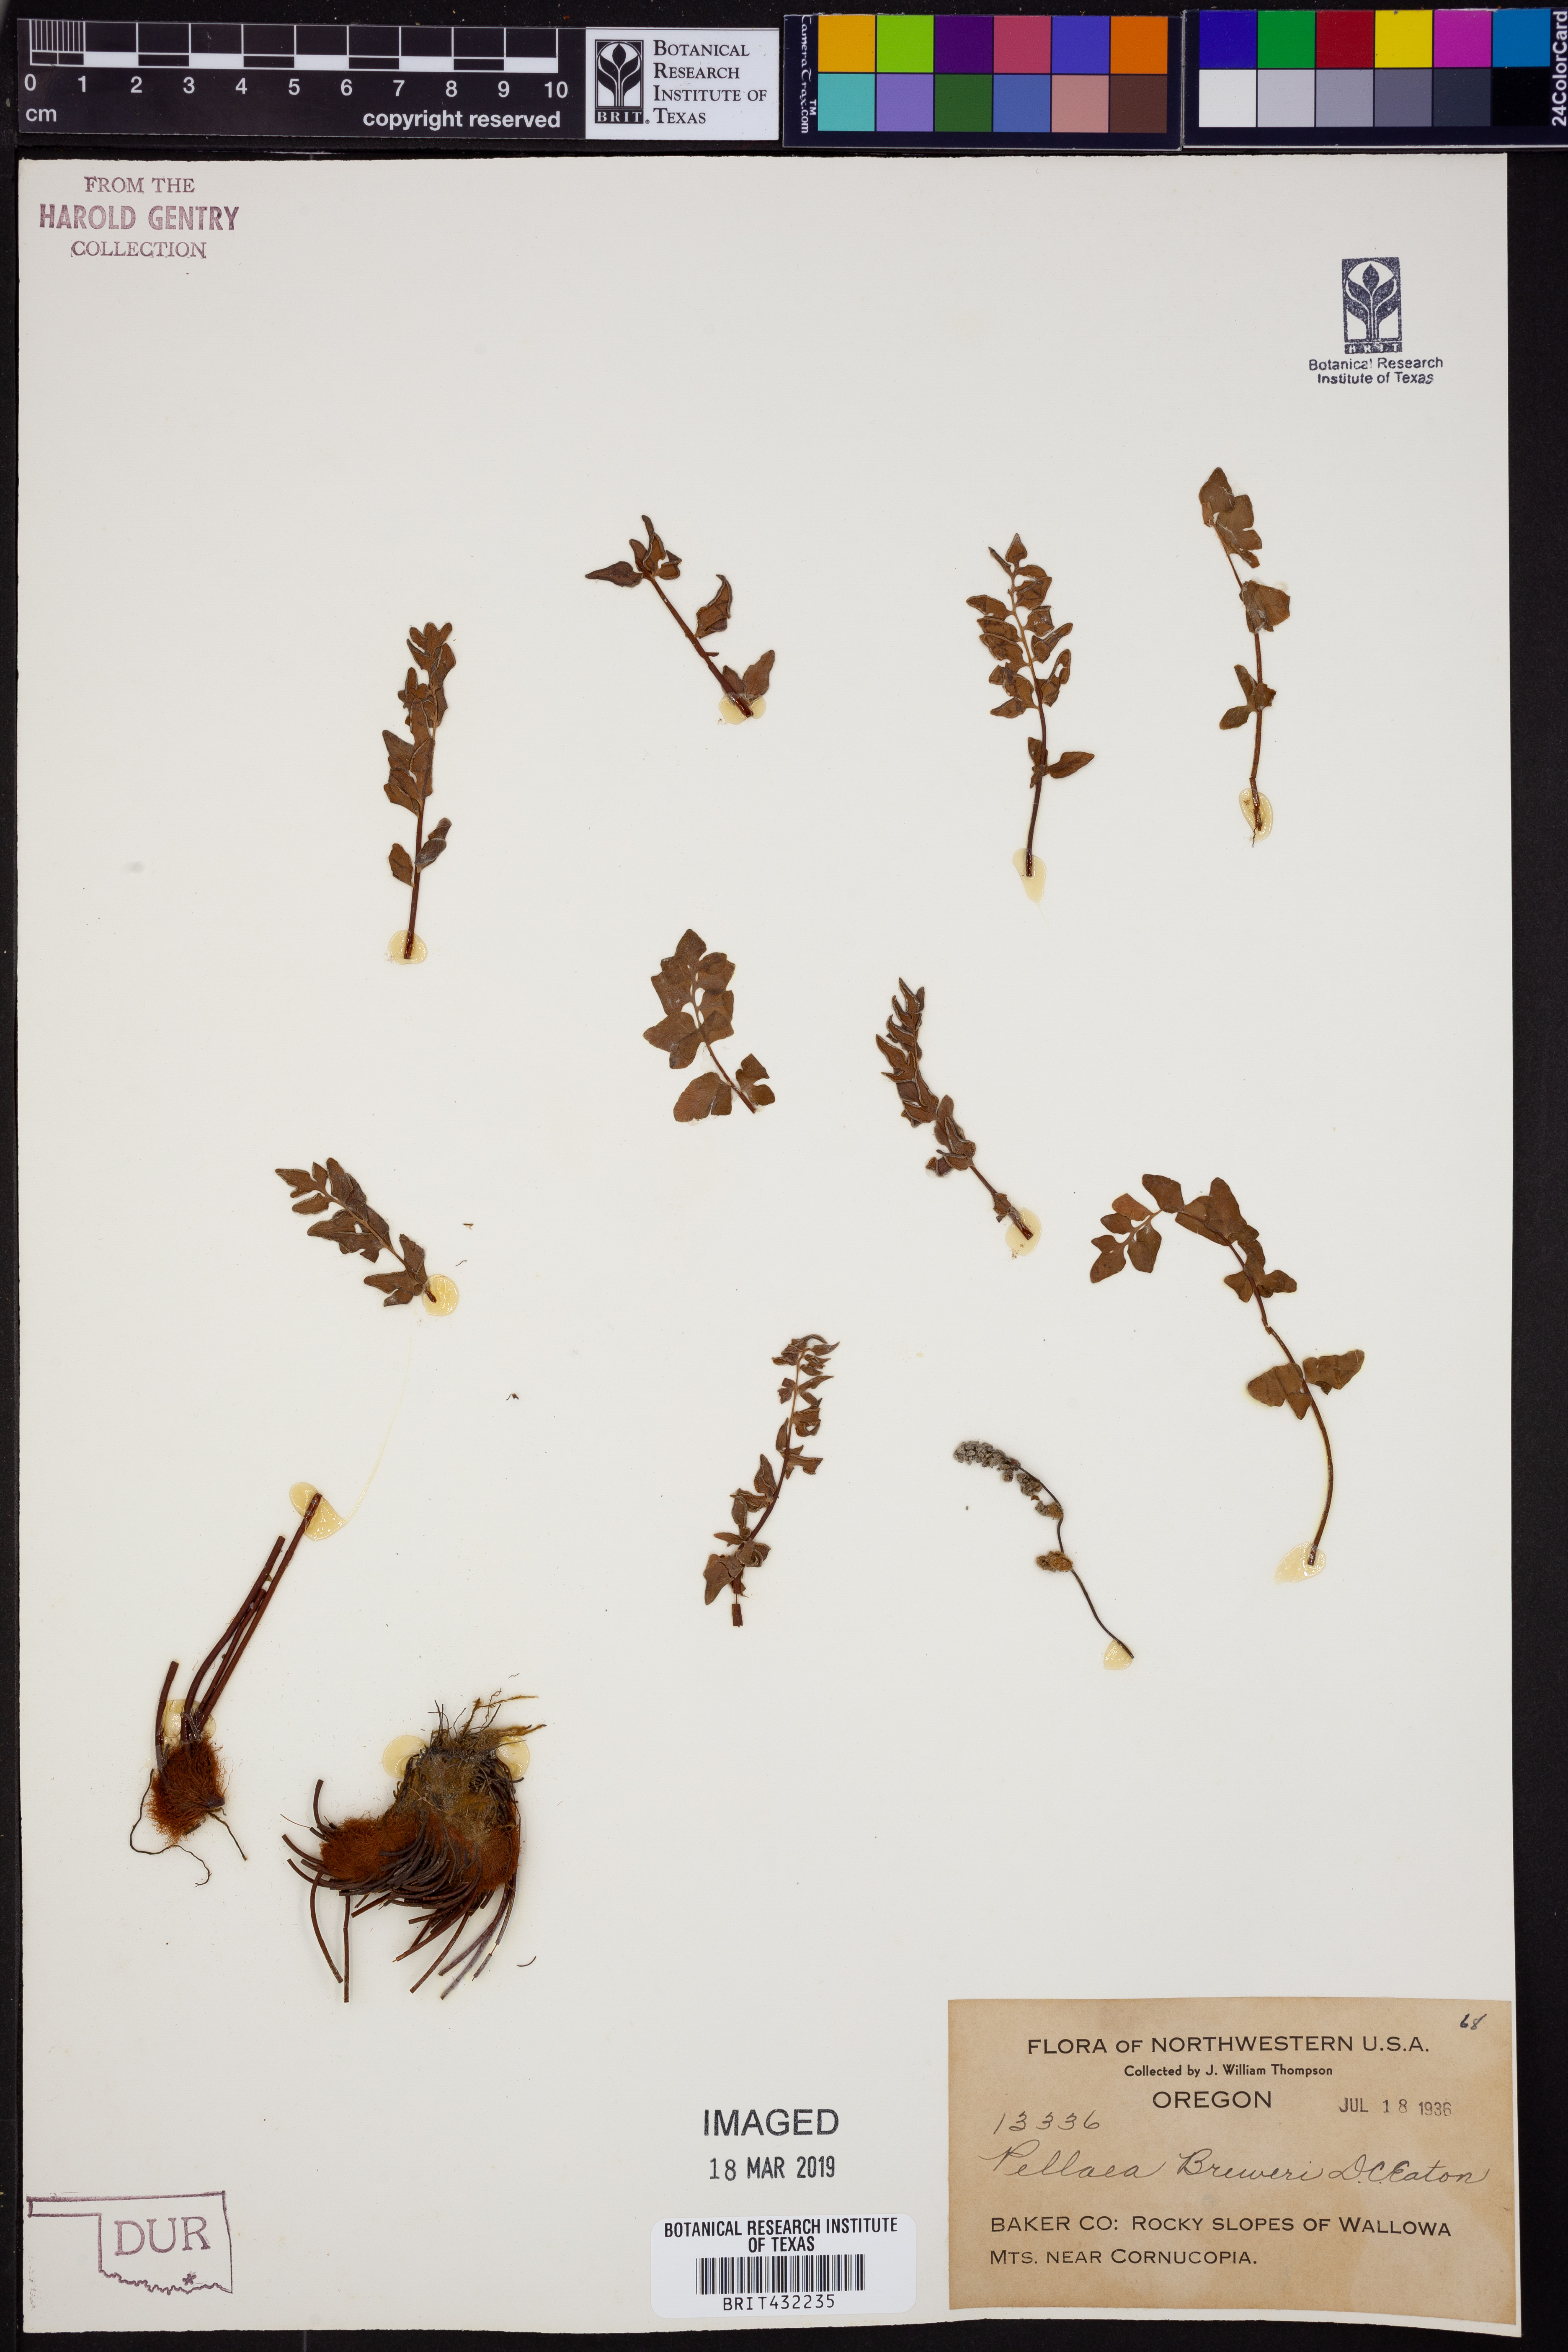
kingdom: Plantae
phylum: Tracheophyta
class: Polypodiopsida
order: Polypodiales
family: Pteridaceae
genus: Pellaea
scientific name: Pellaea breweri
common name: Brewer's cliffbrake
